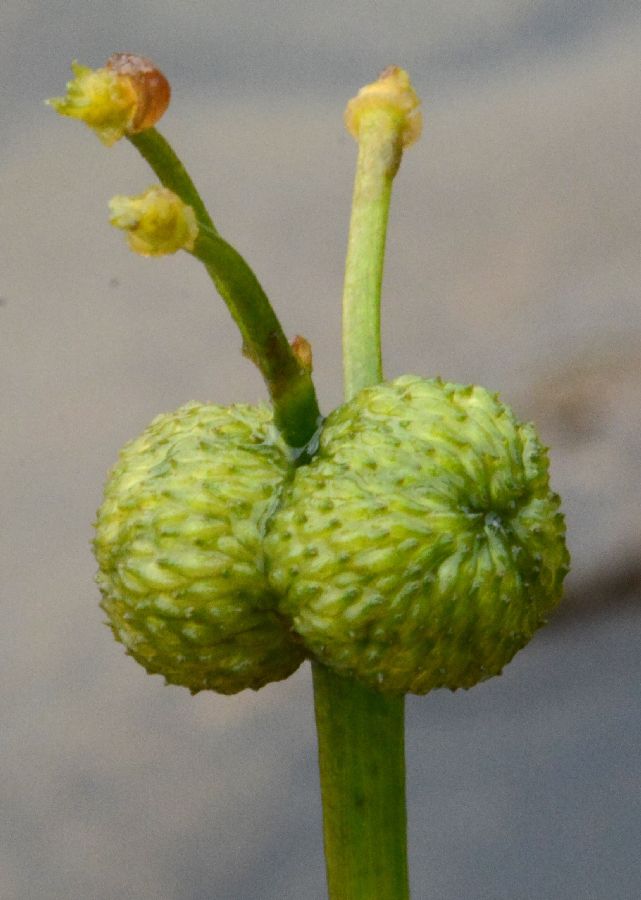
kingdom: Plantae
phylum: Tracheophyta
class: Liliopsida
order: Alismatales
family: Alismataceae
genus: Sagittaria
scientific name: Sagittaria natans
